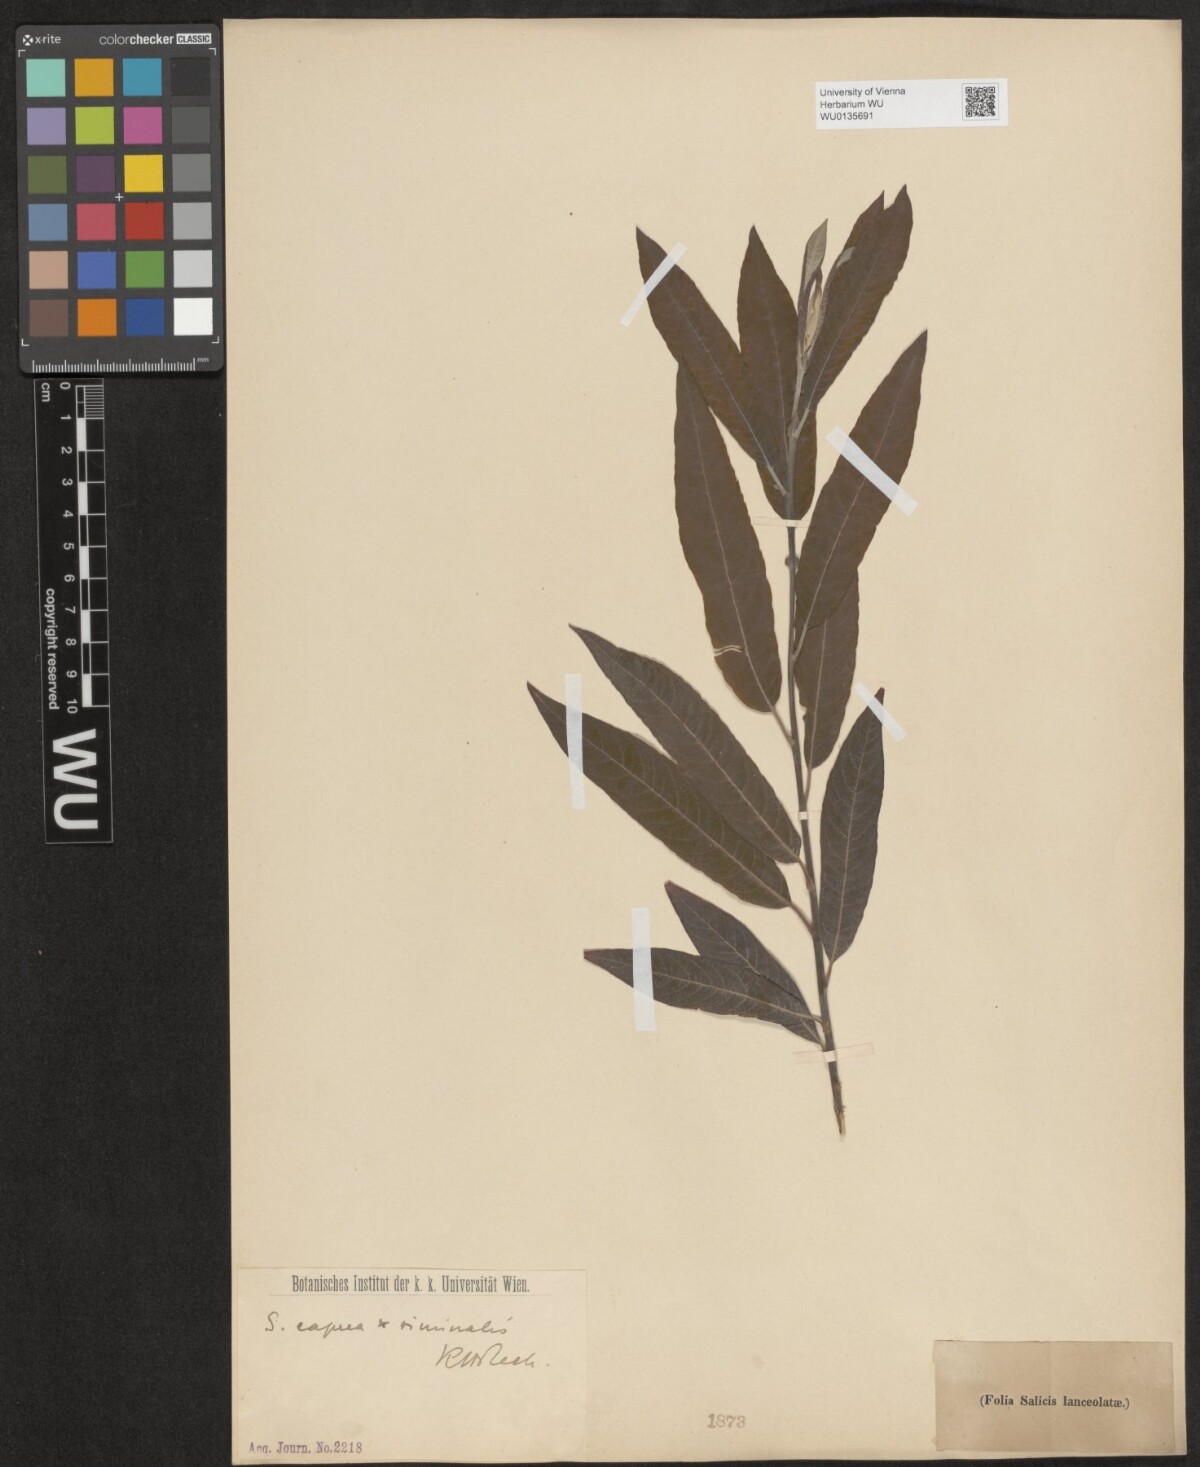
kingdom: Plantae
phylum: Tracheophyta
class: Magnoliopsida
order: Malpighiales
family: Salicaceae
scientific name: Salicaceae
